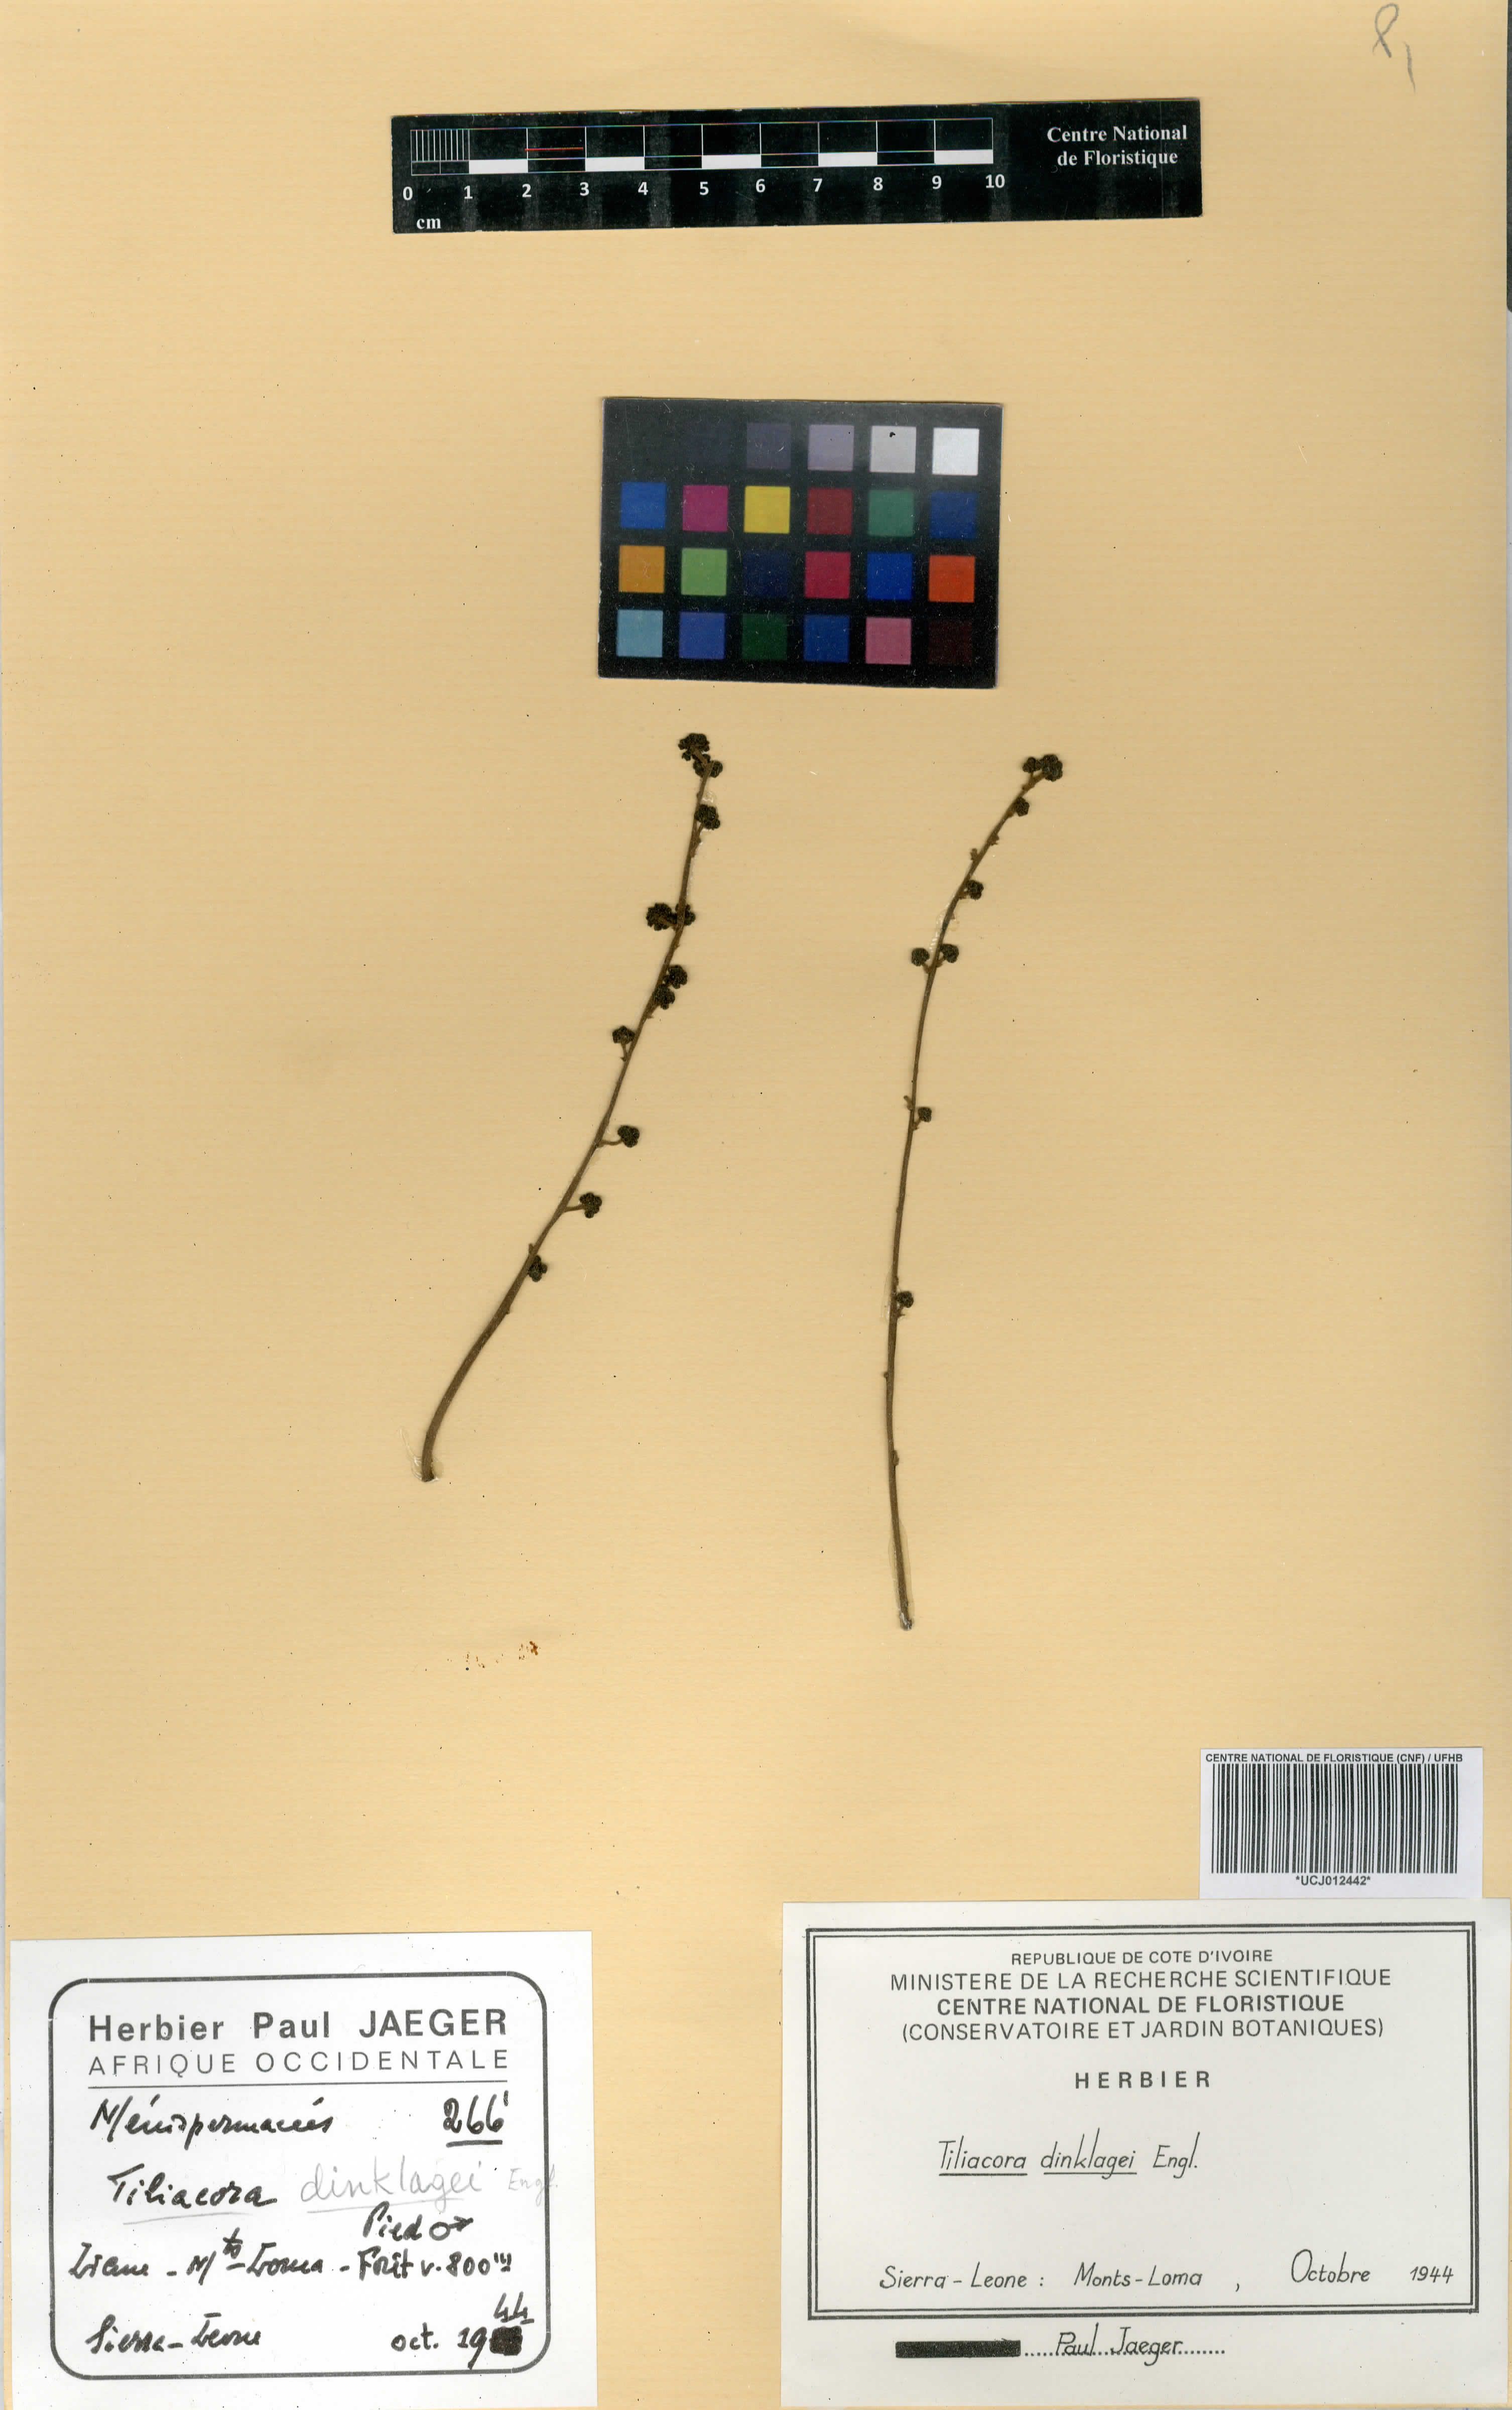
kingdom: Plantae
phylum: Tracheophyta
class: Magnoliopsida
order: Ranunculales
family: Menispermaceae
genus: Tiliacora
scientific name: Tiliacora dinklagei
